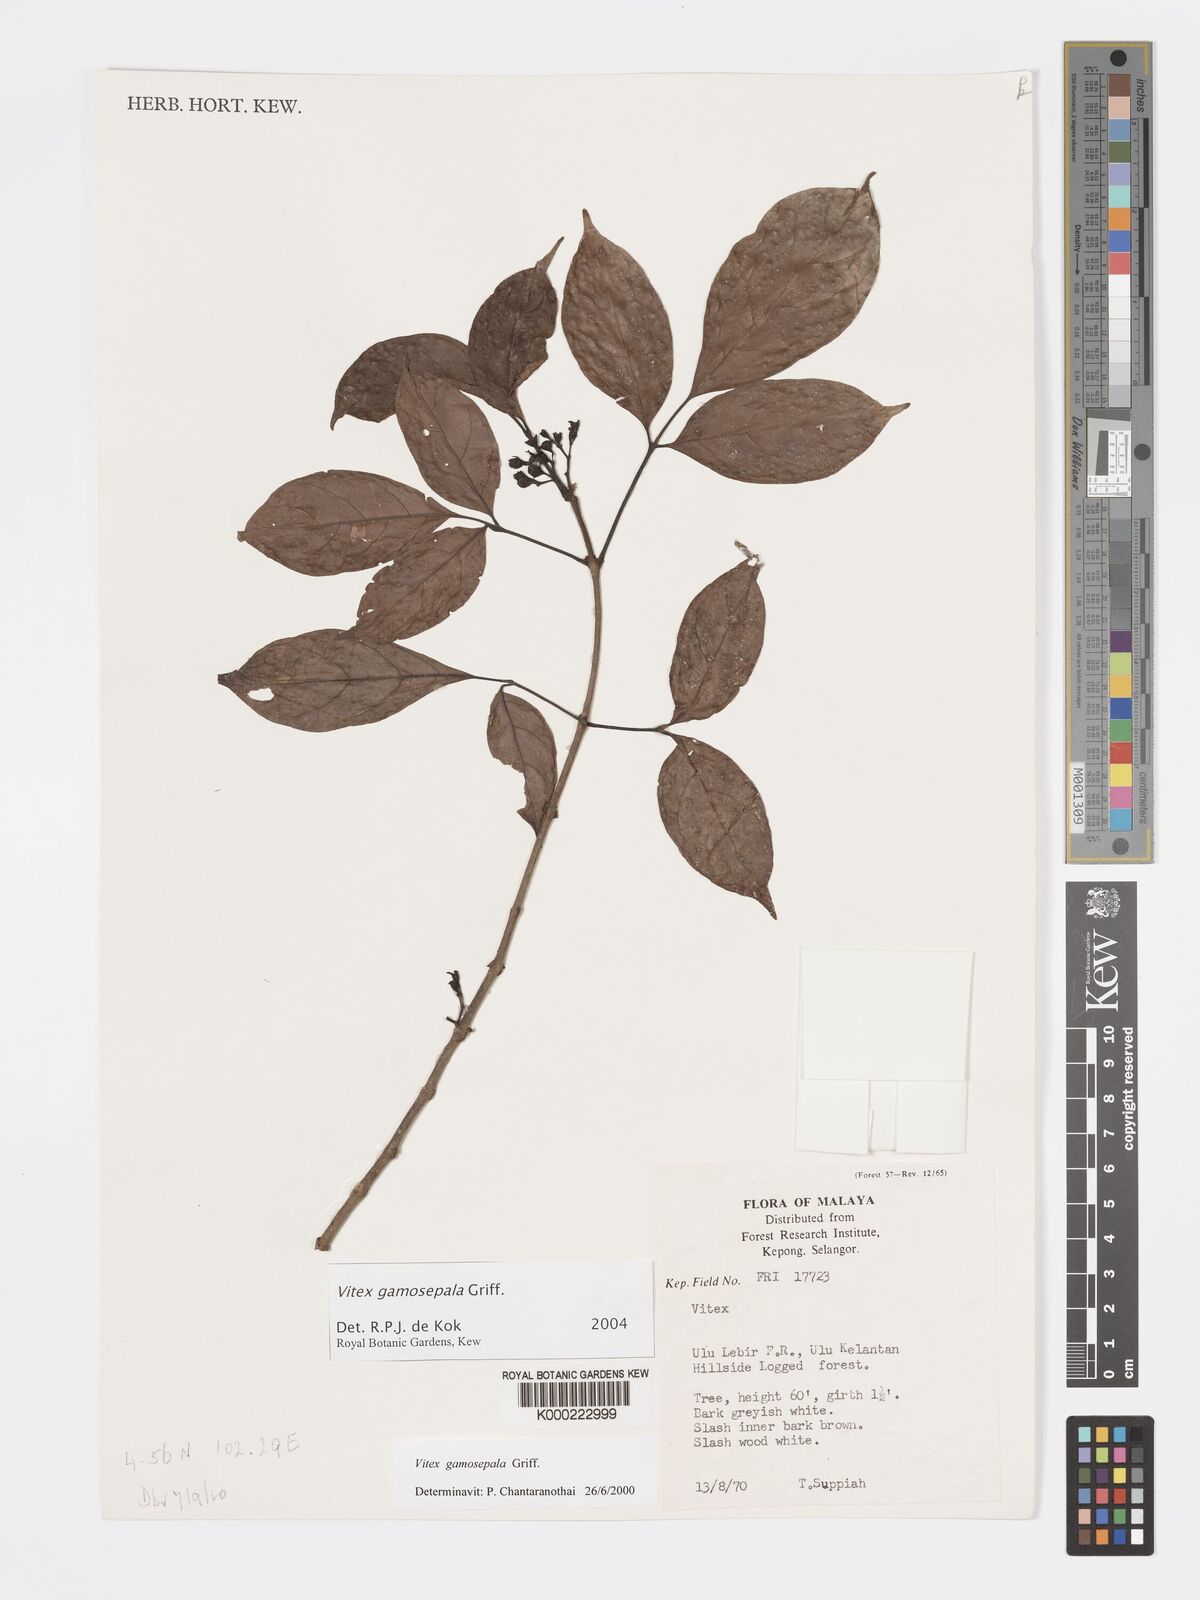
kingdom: Plantae
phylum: Tracheophyta
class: Magnoliopsida
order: Lamiales
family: Lamiaceae
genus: Vitex
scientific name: Vitex gamosepala
